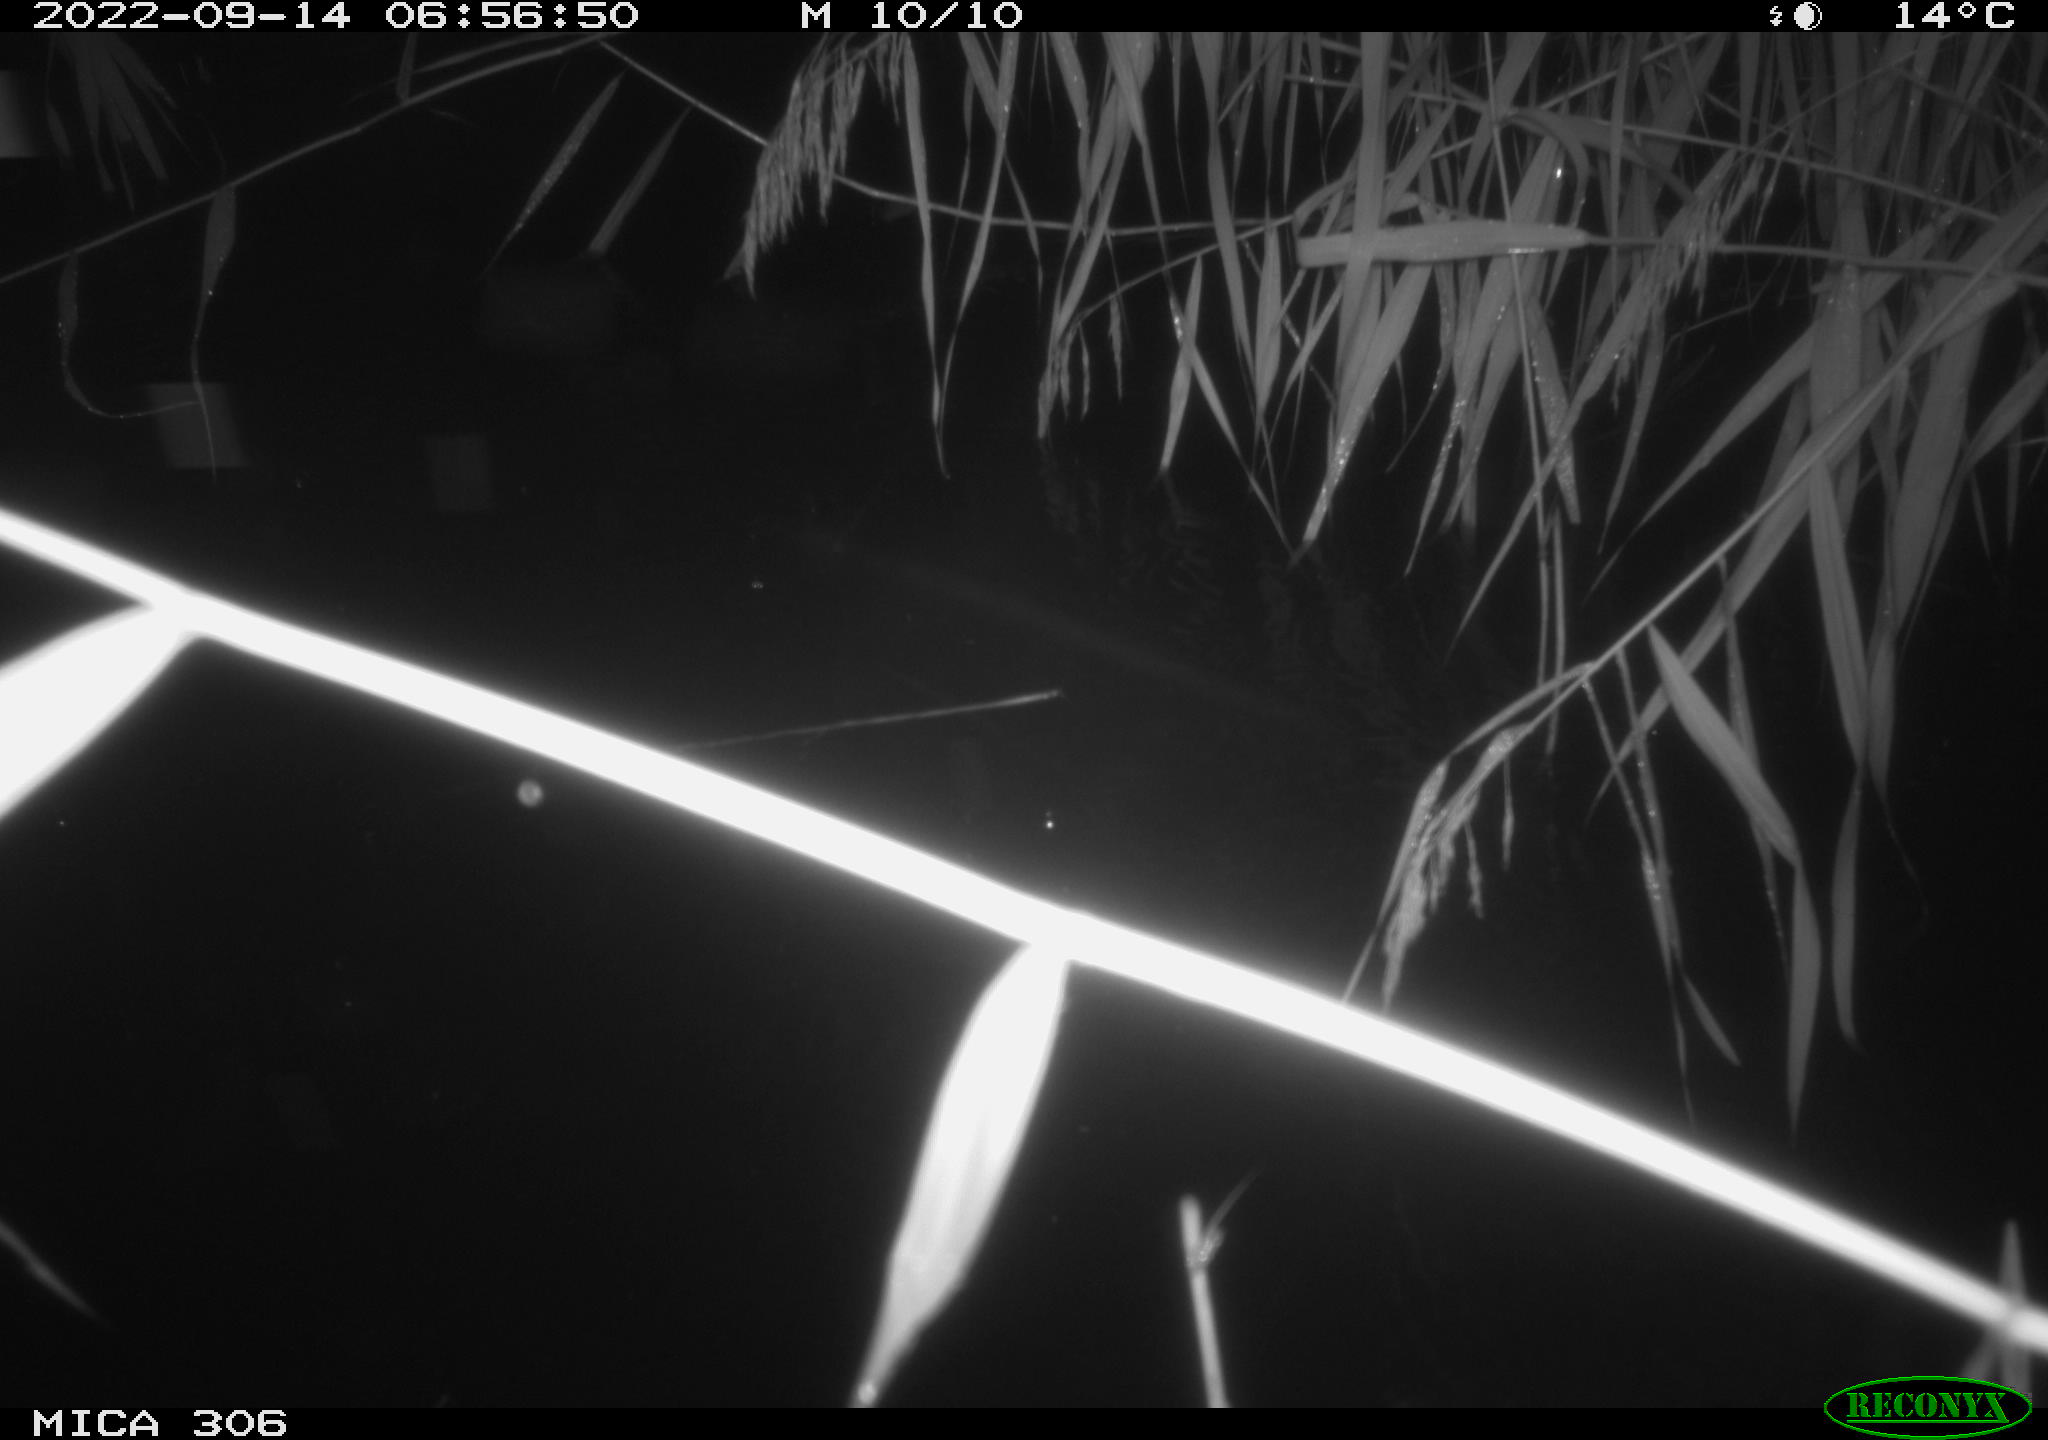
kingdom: Animalia
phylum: Chordata
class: Mammalia
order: Rodentia
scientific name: Rodentia
